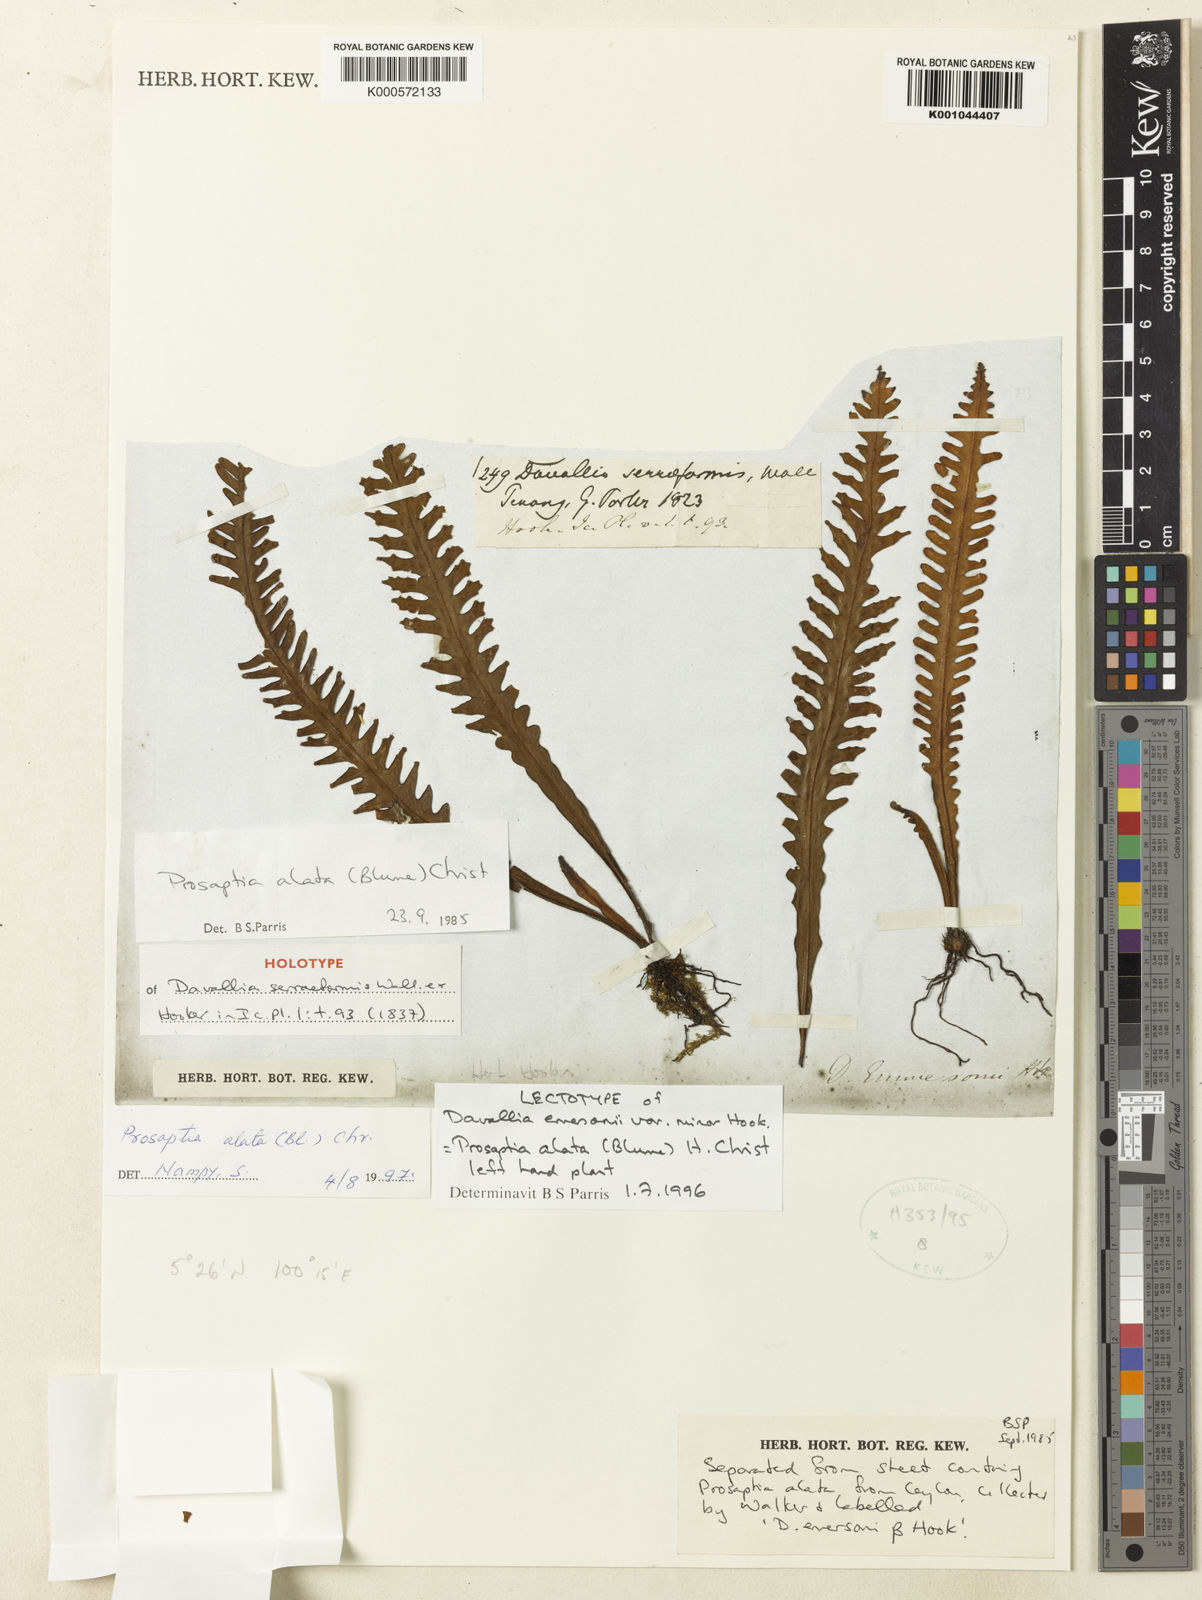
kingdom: Plantae
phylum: Tracheophyta
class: Polypodiopsida
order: Polypodiales
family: Polypodiaceae
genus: Prosaptia
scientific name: Prosaptia alata
